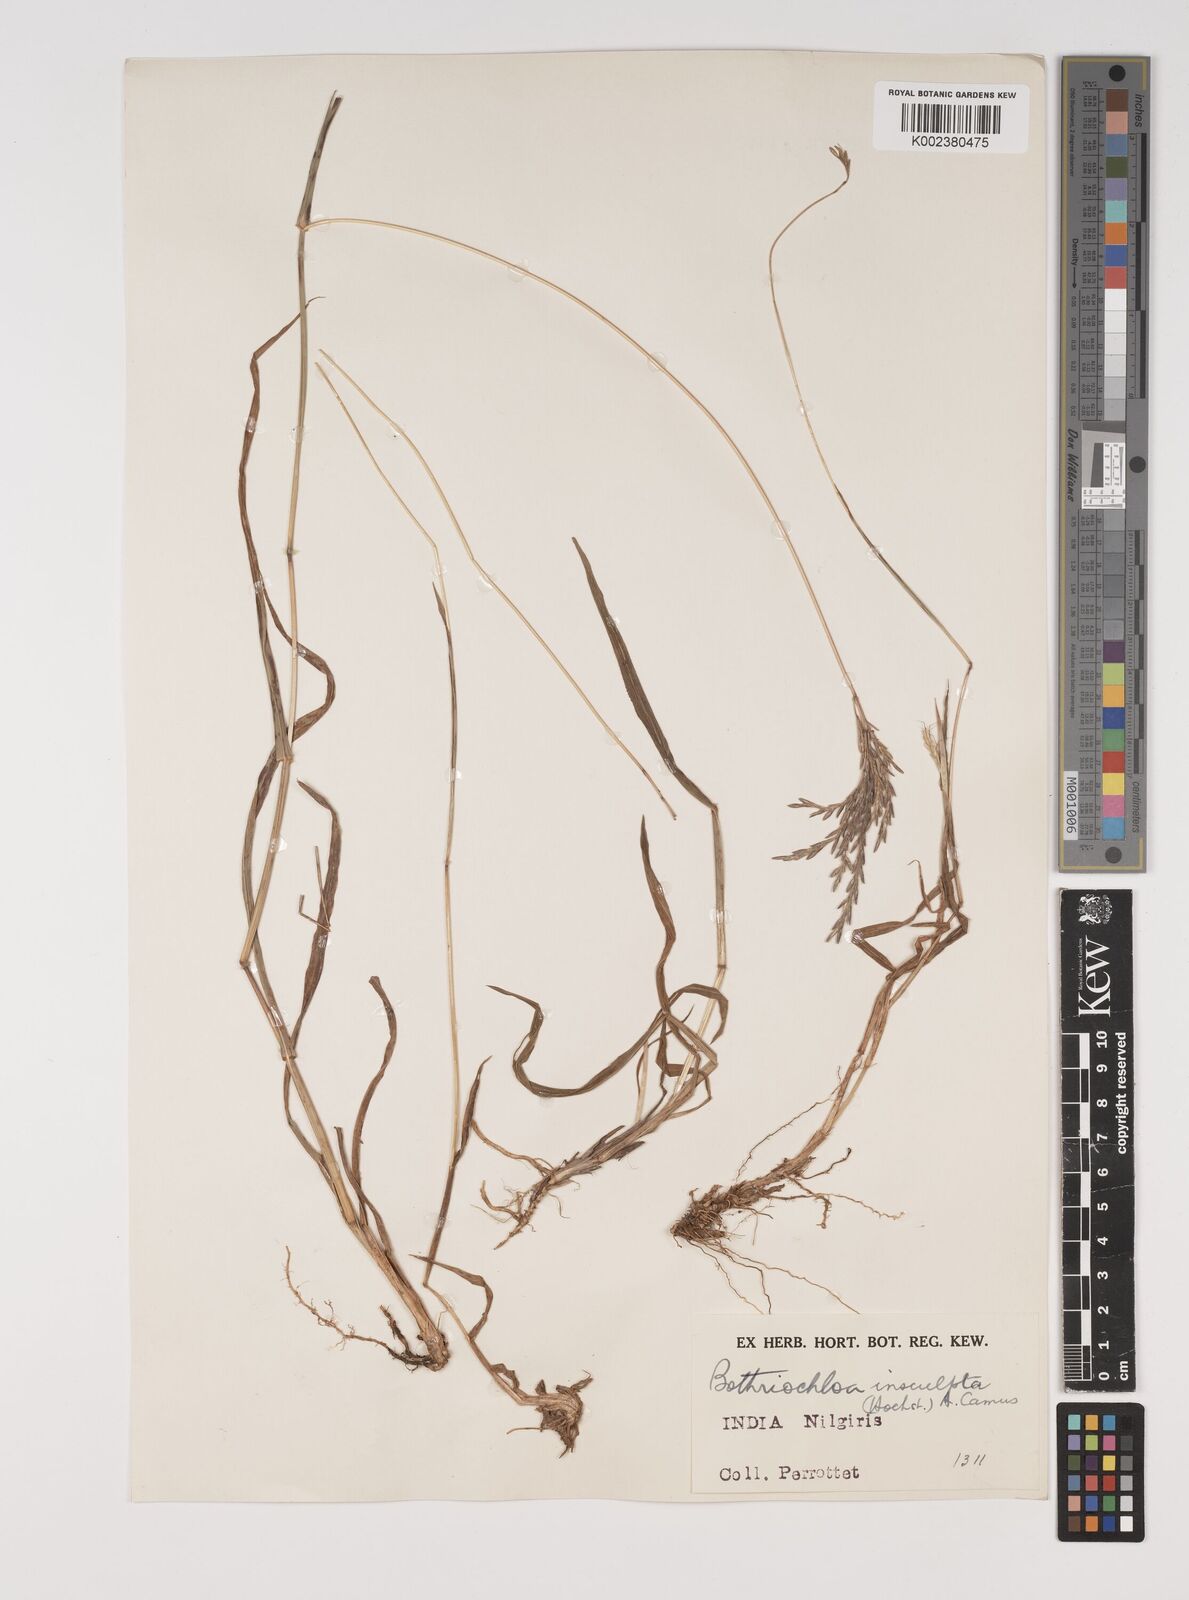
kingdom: Plantae
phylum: Tracheophyta
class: Liliopsida
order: Poales
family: Poaceae
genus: Bothriochloa
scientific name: Bothriochloa insculpta
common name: Creeping-bluegrass
